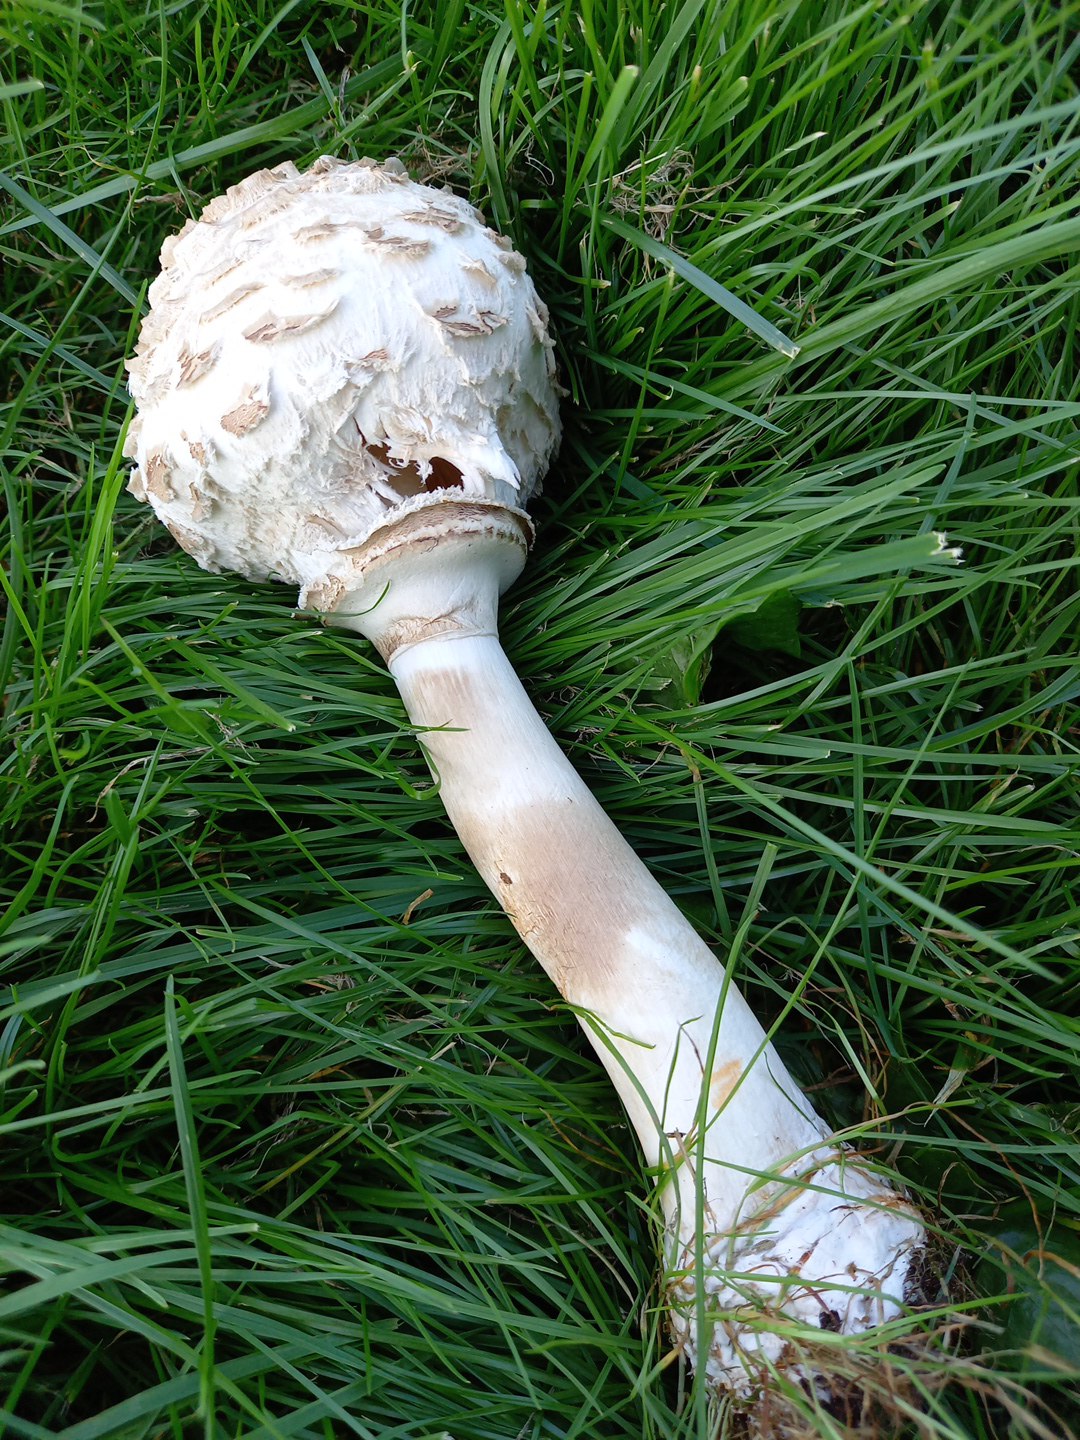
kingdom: Fungi
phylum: Basidiomycota
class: Agaricomycetes
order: Agaricales
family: Agaricaceae
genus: Chlorophyllum
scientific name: Chlorophyllum rhacodes
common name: ægte rabarberhat
